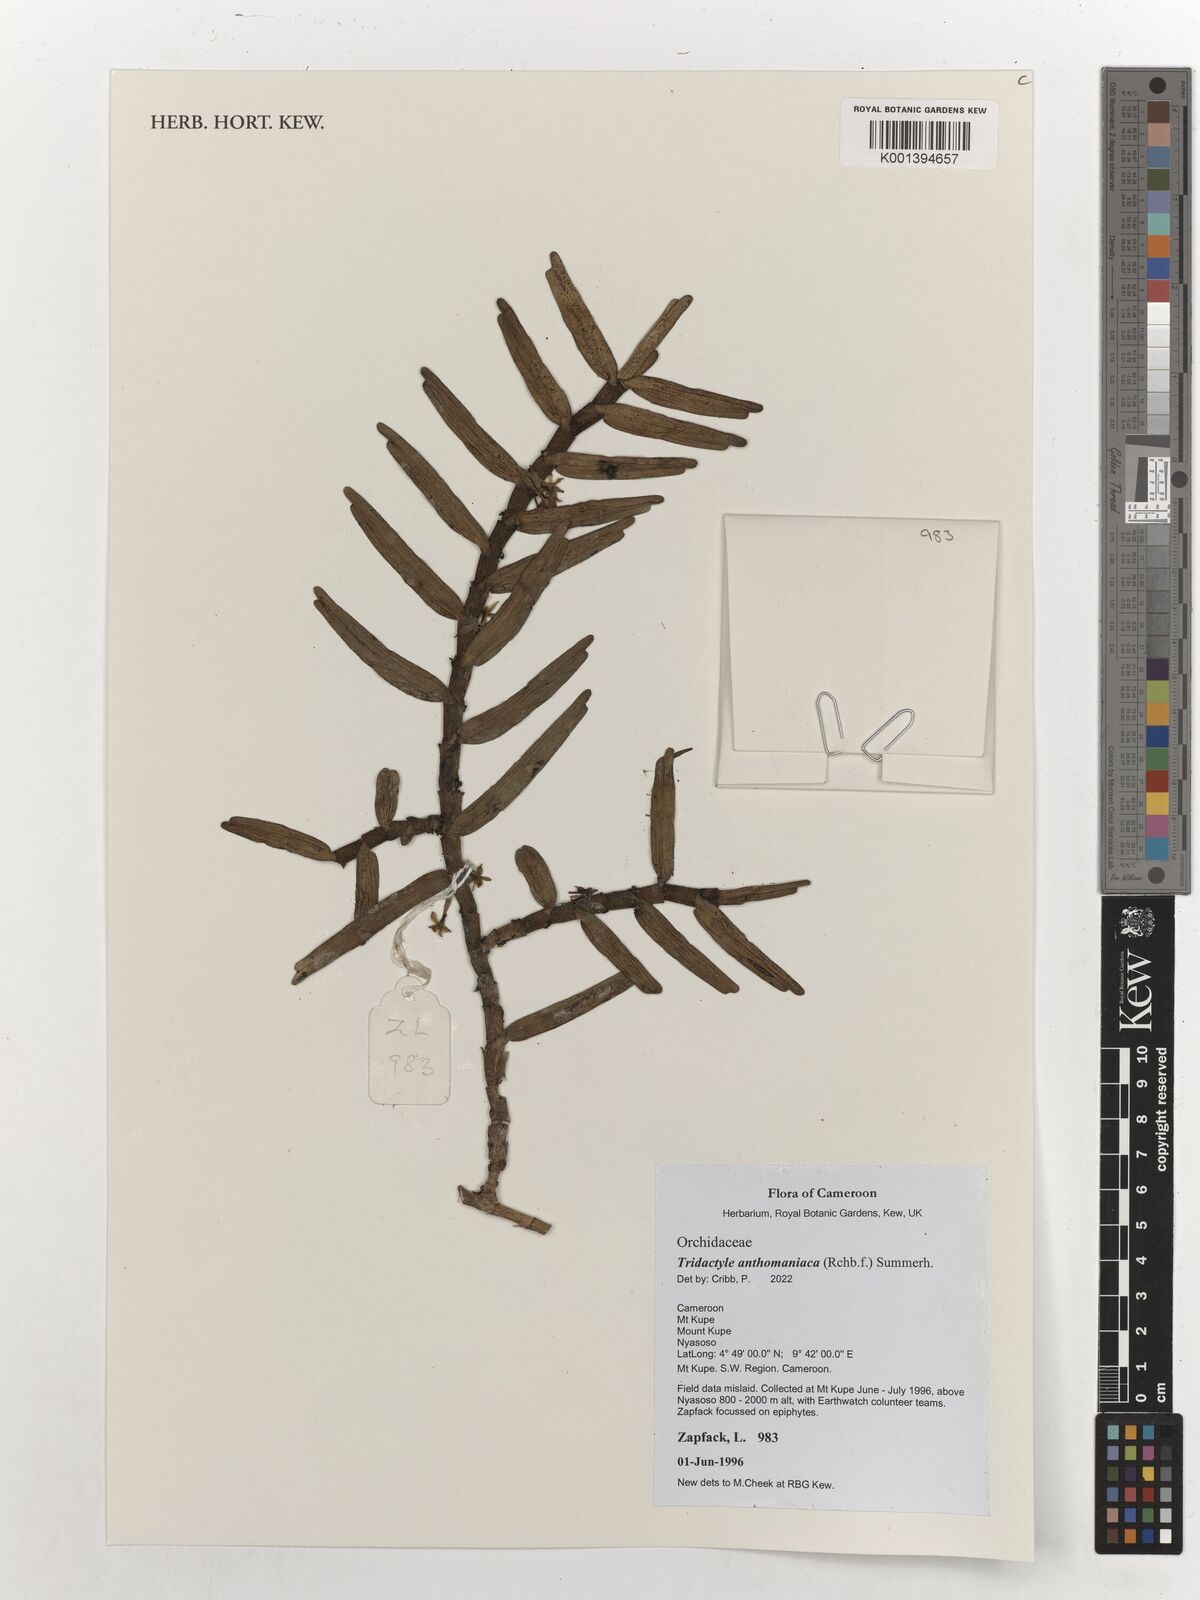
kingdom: Plantae
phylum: Tracheophyta
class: Liliopsida
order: Asparagales
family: Orchidaceae
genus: Tridactyle
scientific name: Tridactyle anthomaniaca
